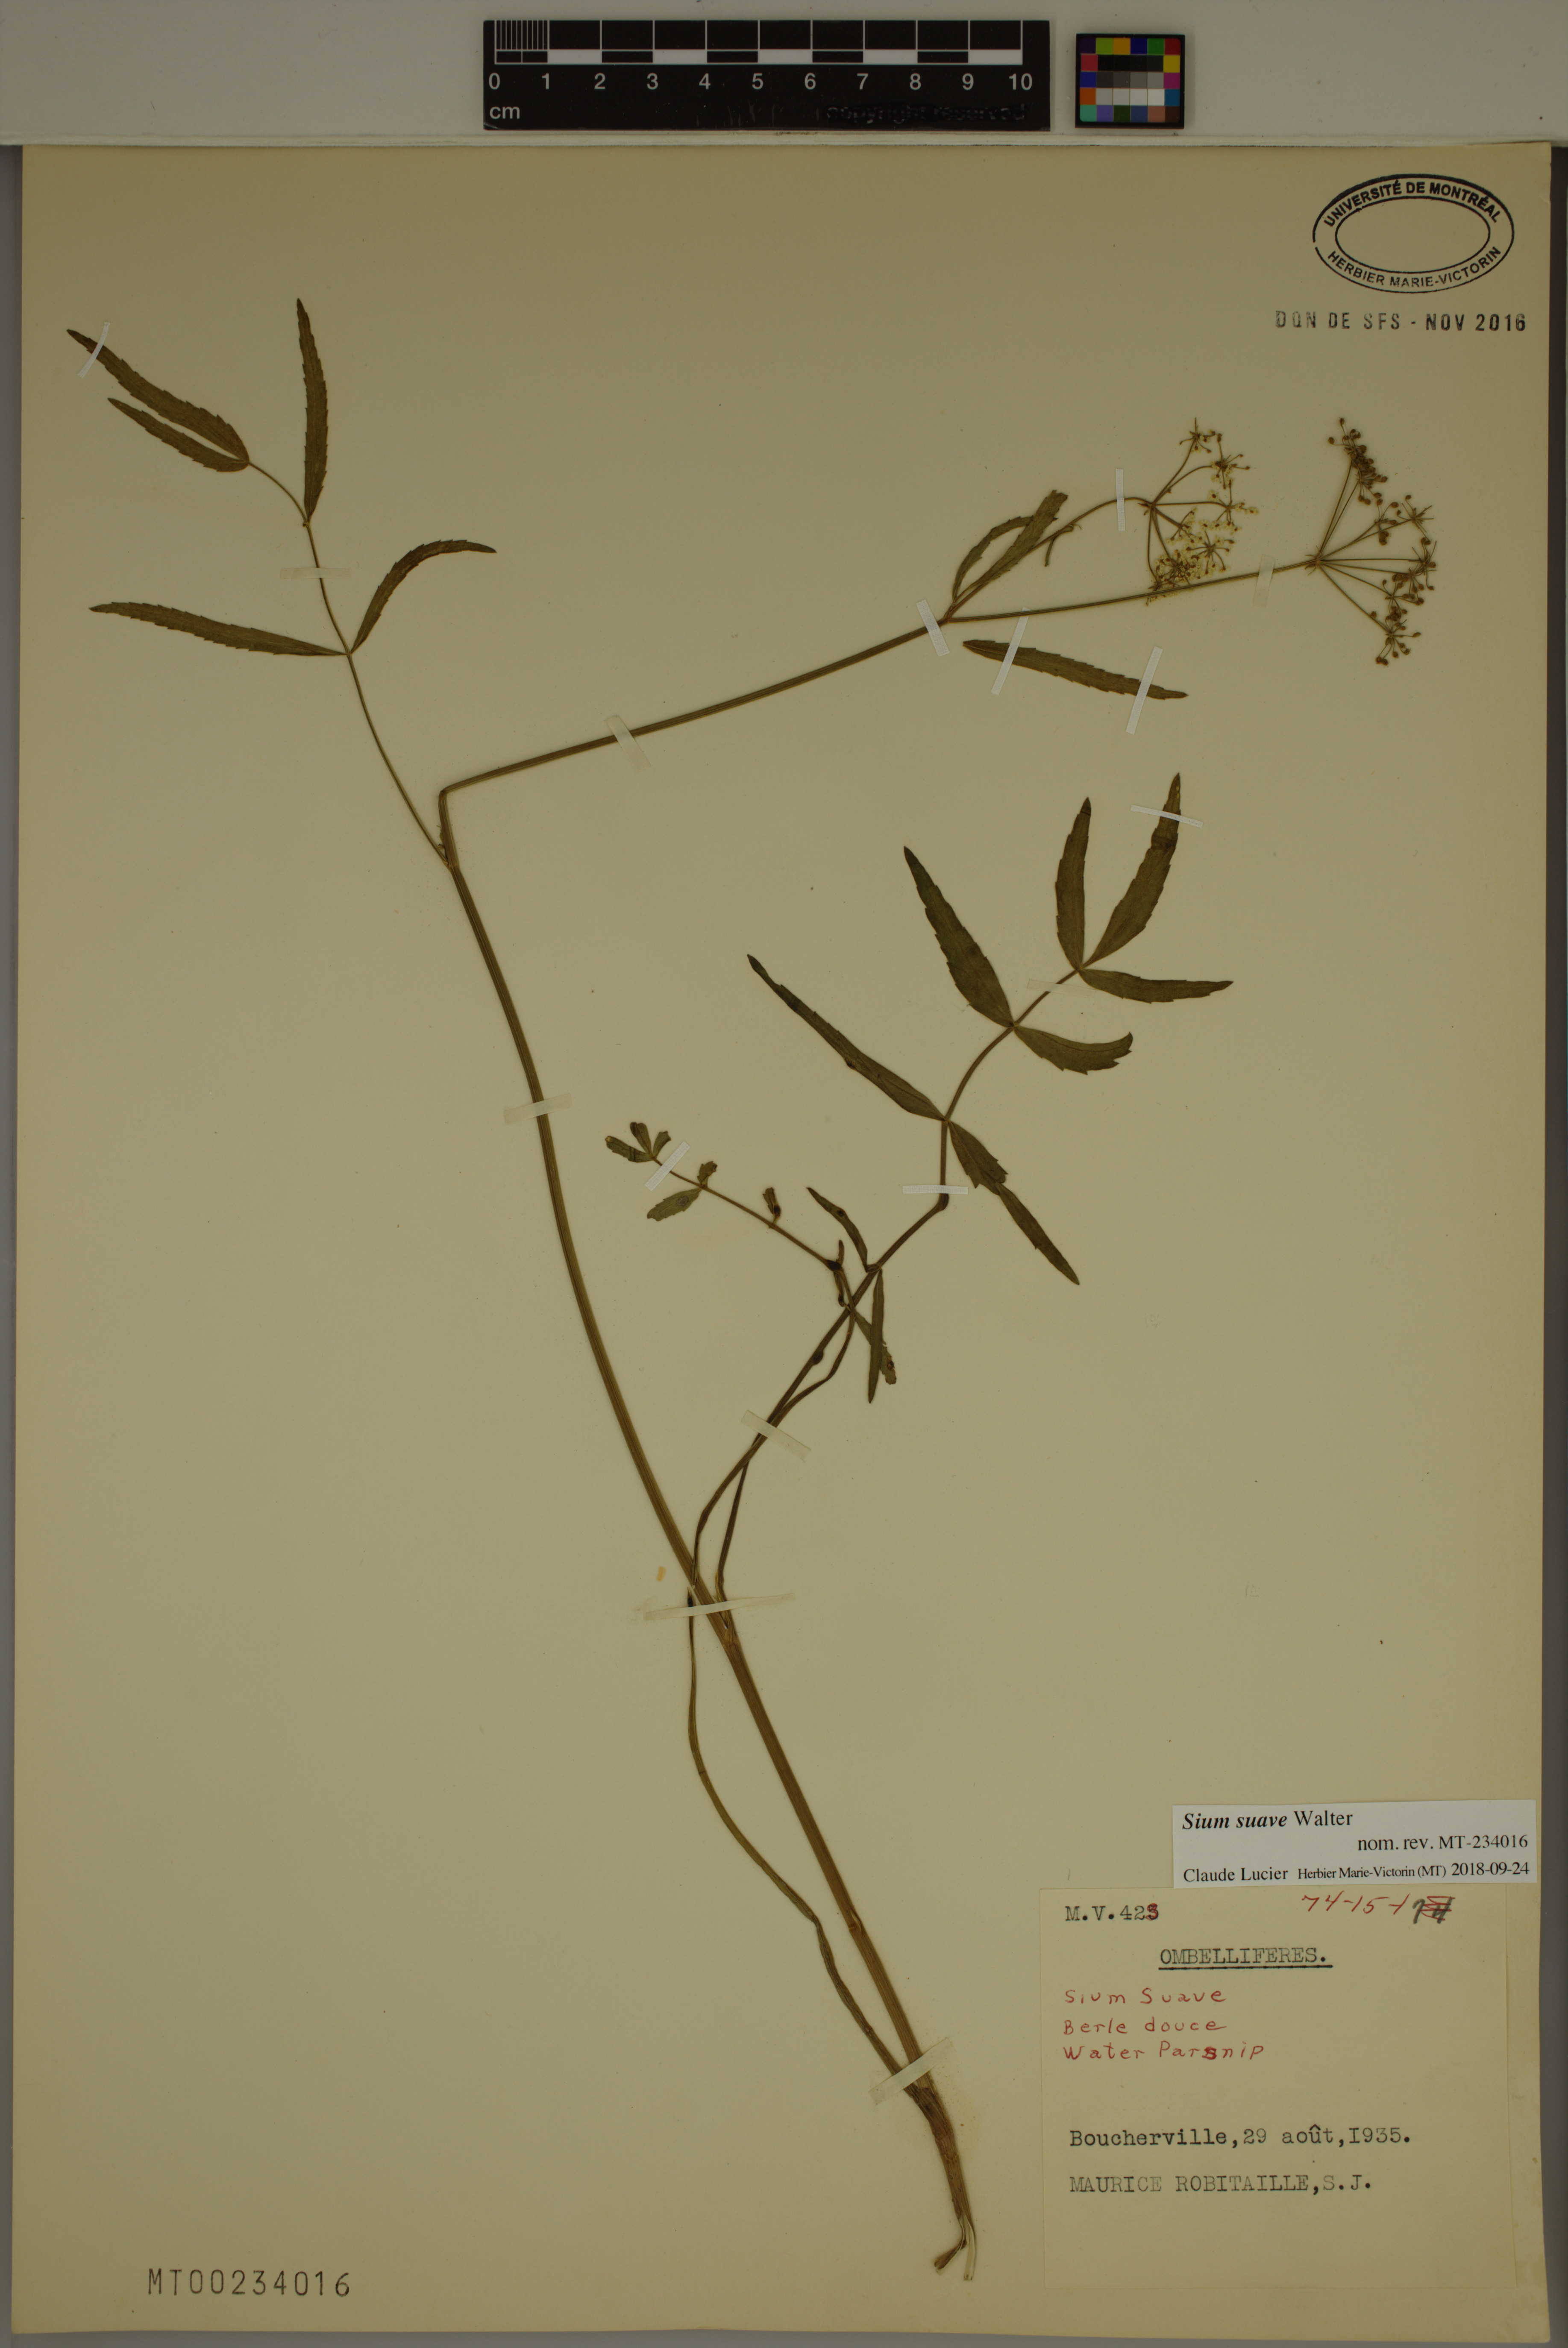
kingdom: Plantae
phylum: Tracheophyta
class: Magnoliopsida
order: Apiales
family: Apiaceae
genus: Sium
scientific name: Sium suave
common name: Hemlock water-parsnip
